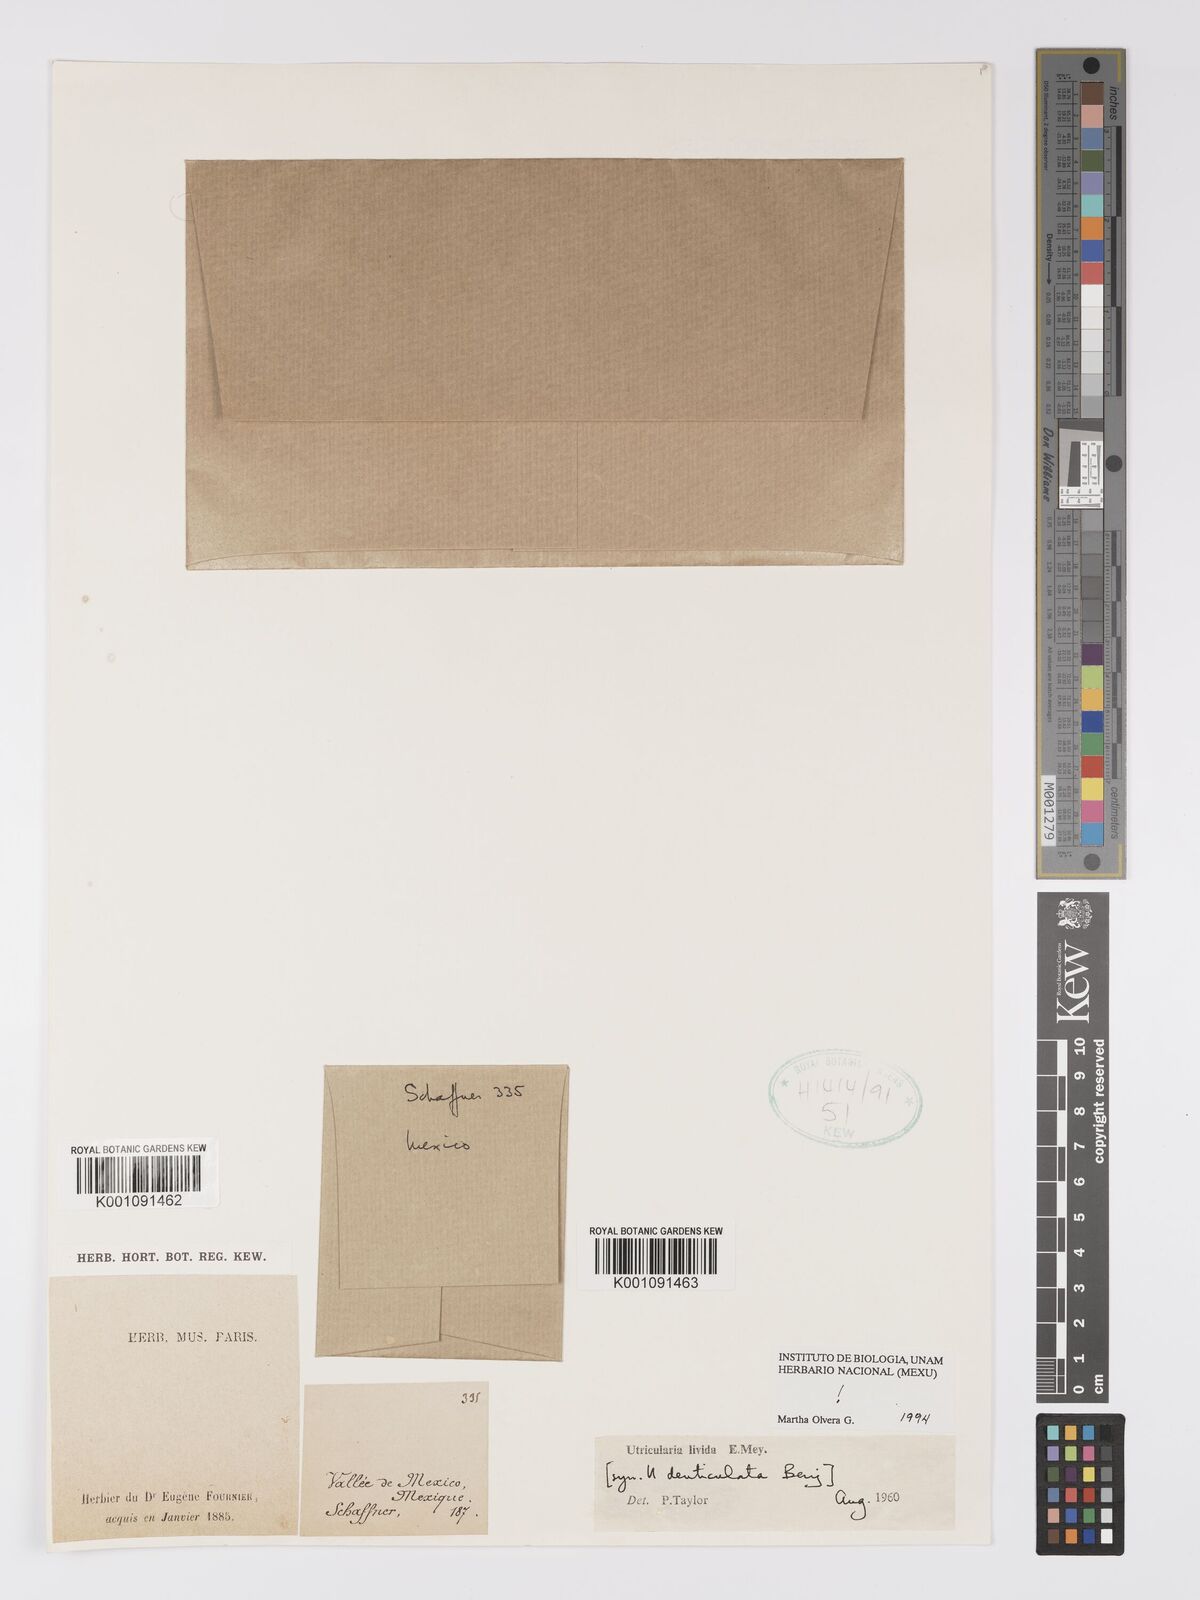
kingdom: Plantae
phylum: Tracheophyta
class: Magnoliopsida
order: Lamiales
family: Lentibulariaceae
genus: Utricularia
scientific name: Utricularia livida
